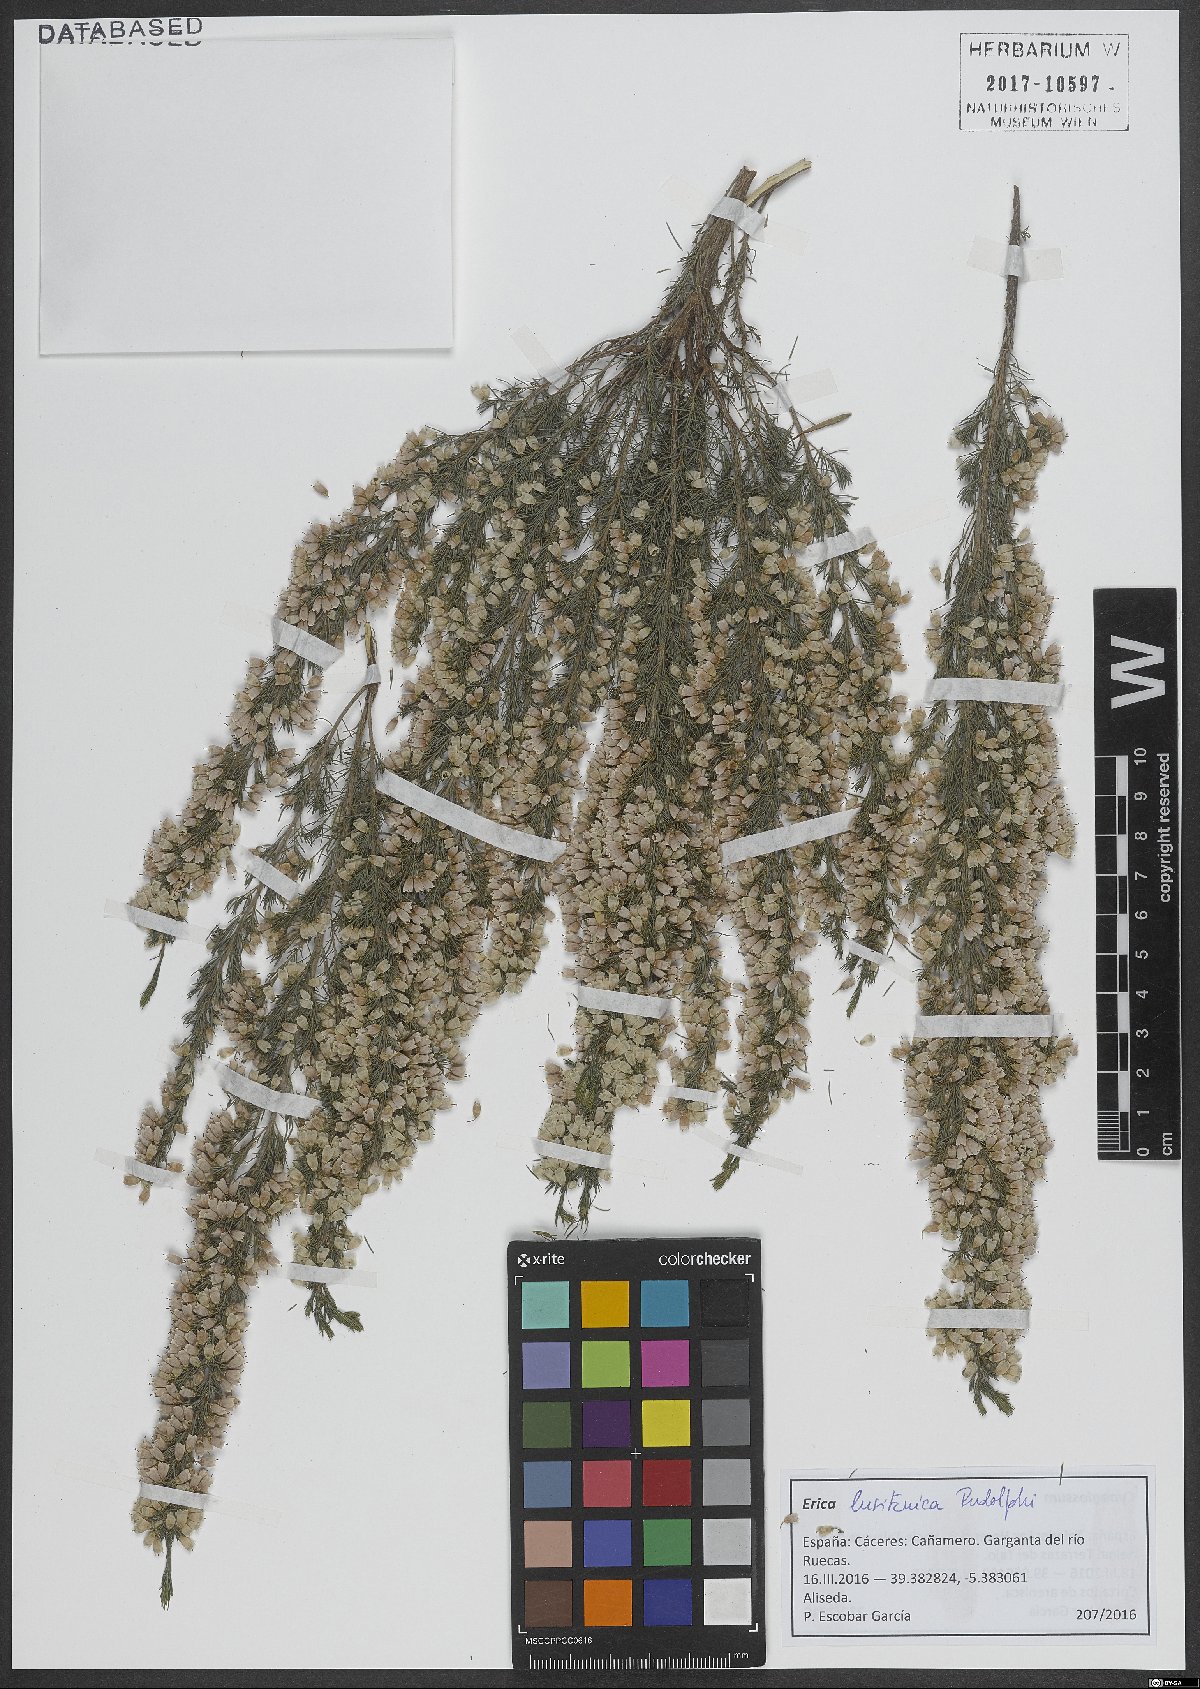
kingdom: Plantae
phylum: Tracheophyta
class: Magnoliopsida
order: Ericales
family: Ericaceae
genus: Erica
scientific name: Erica lusitanica
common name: Spanish heath
